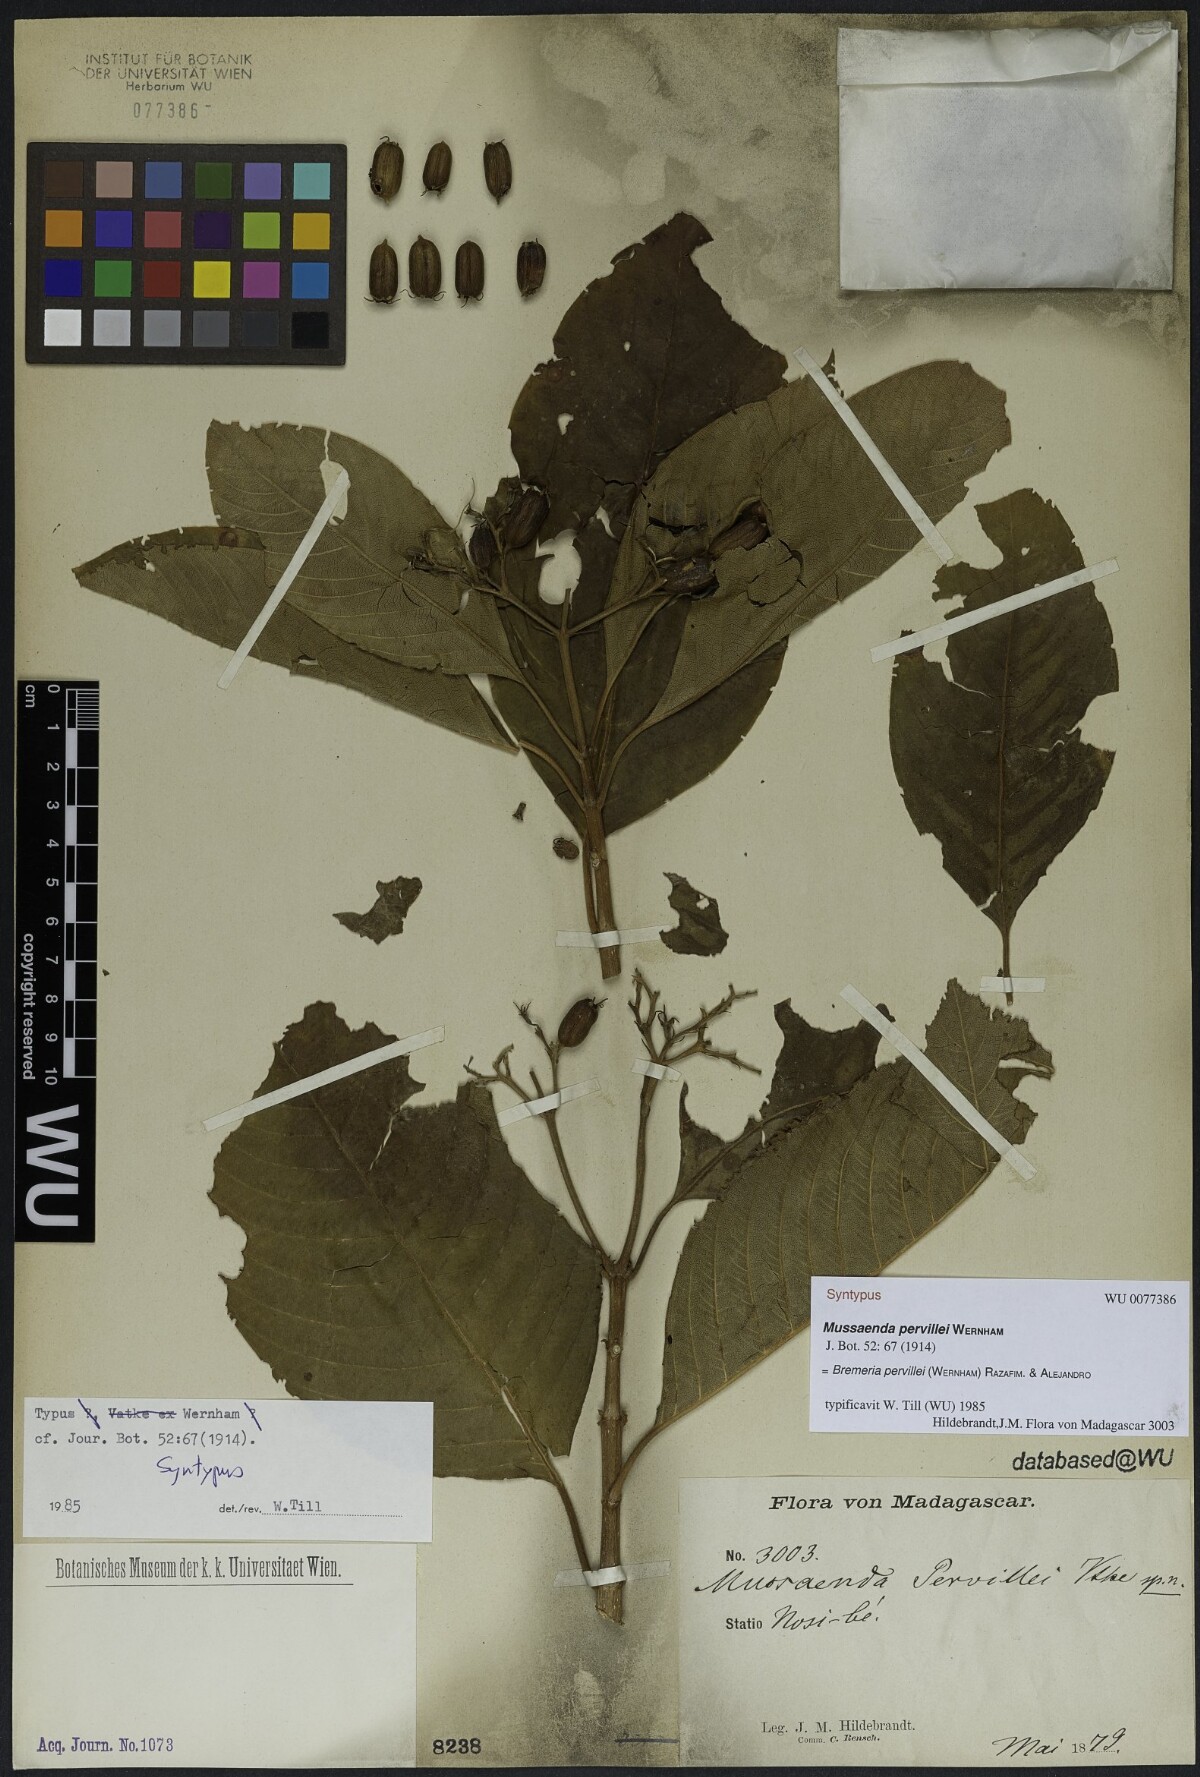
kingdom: Plantae
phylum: Tracheophyta
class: Magnoliopsida
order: Gentianales
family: Rubiaceae
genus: Bremeria
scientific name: Bremeria pervillei
